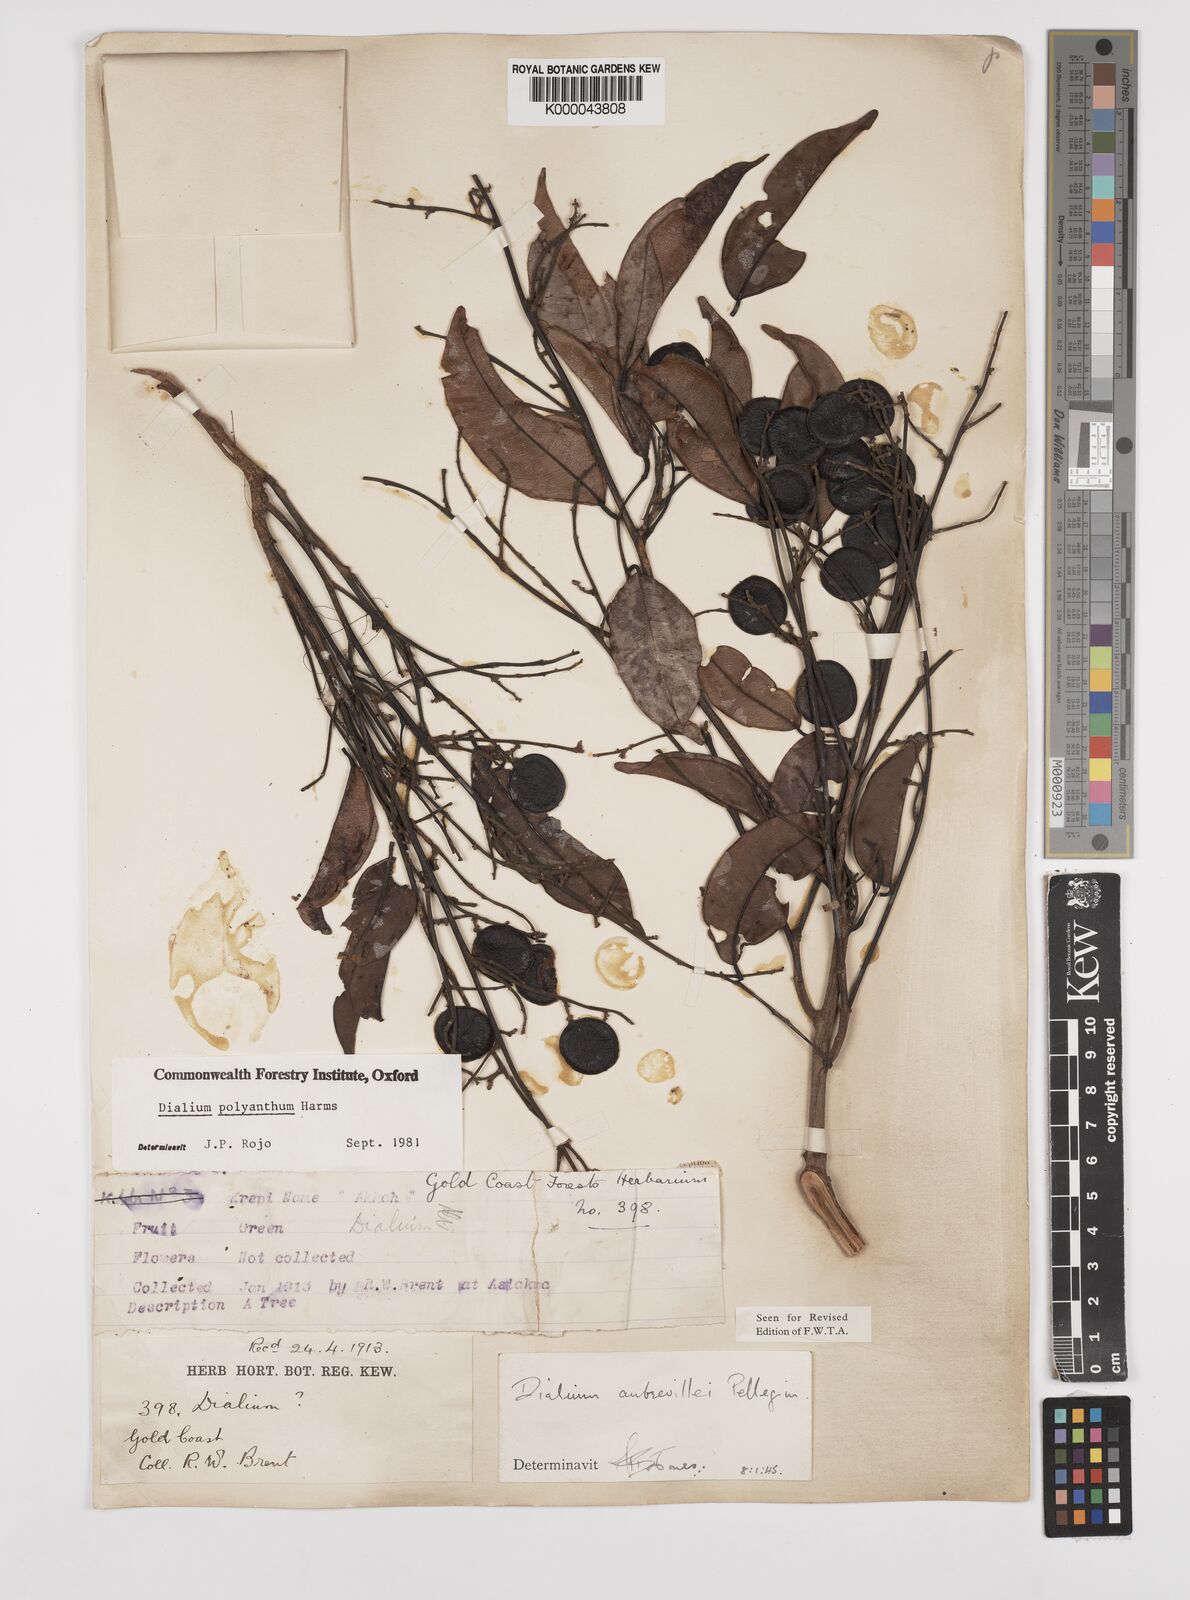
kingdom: Plantae
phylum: Tracheophyta
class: Magnoliopsida
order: Fabales
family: Fabaceae
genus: Dialium
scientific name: Dialium polyanthum
